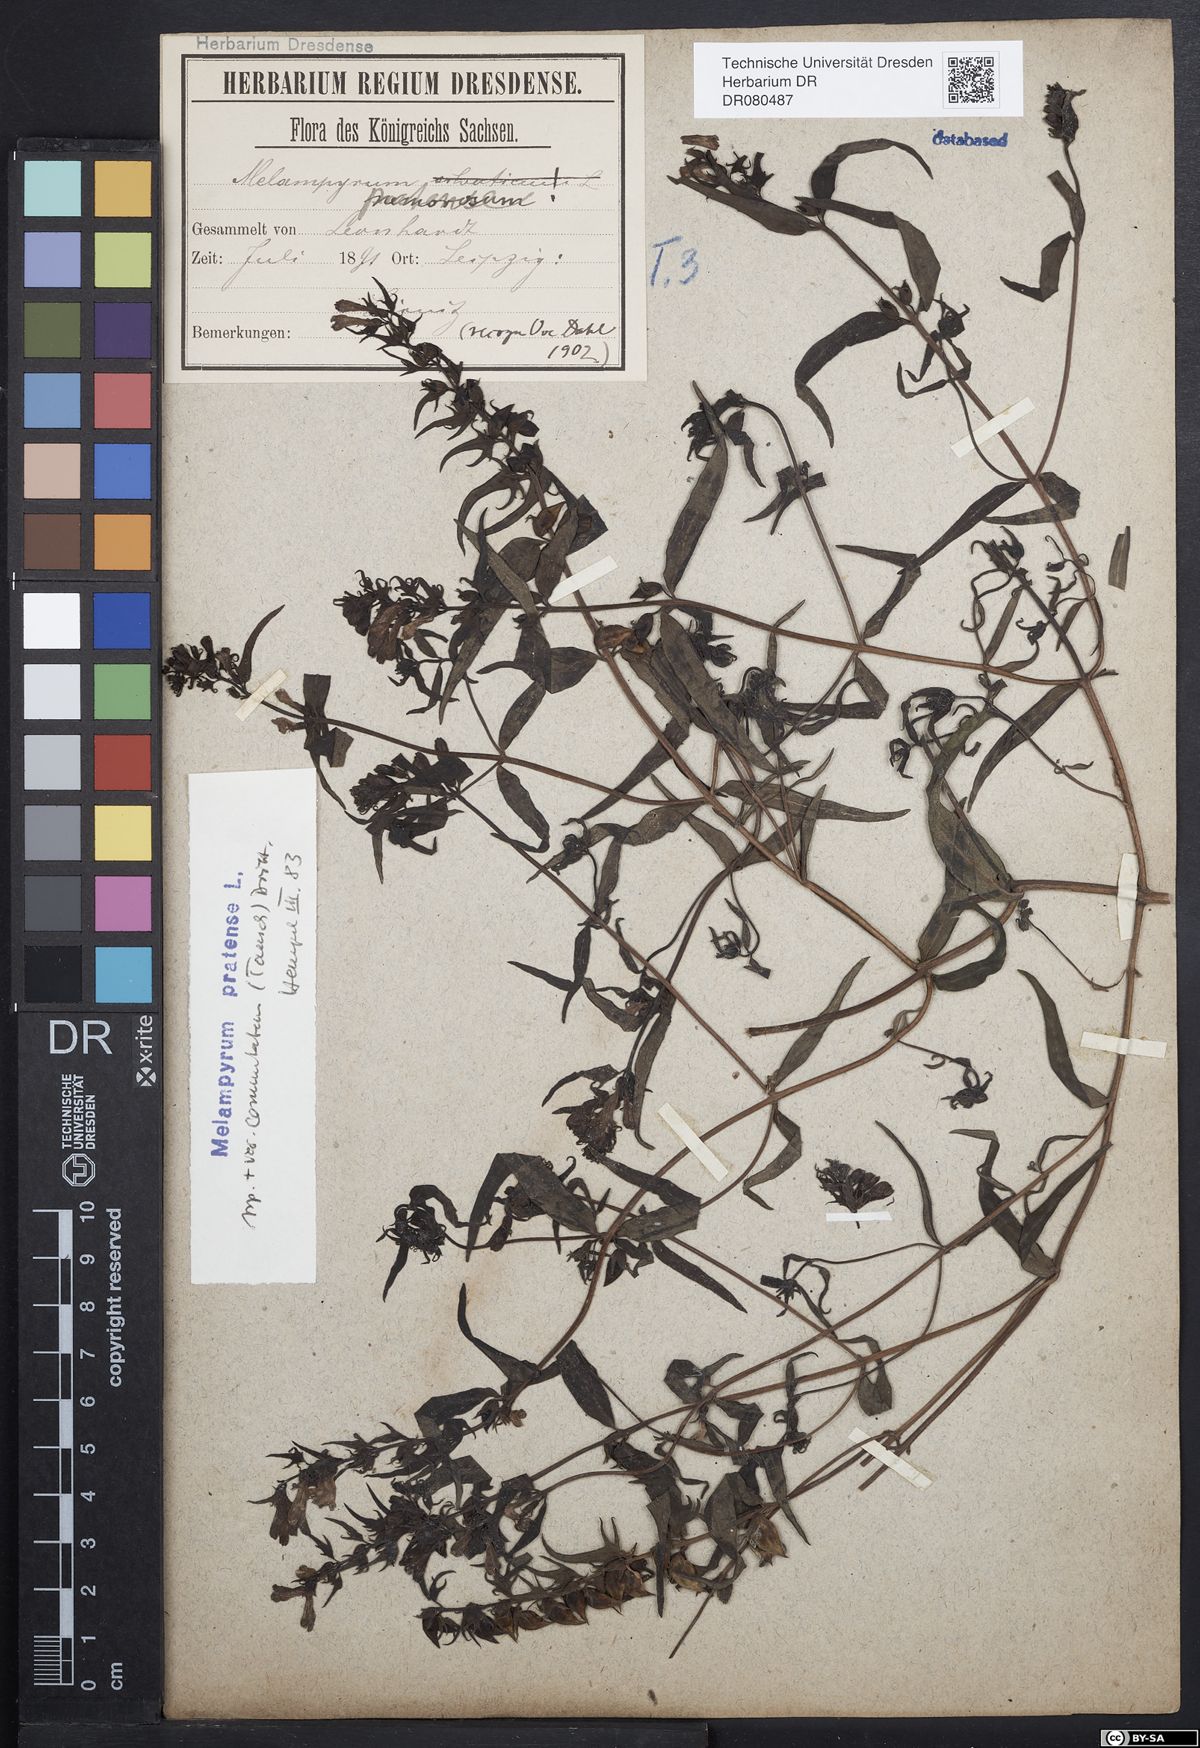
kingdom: Plantae
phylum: Tracheophyta
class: Magnoliopsida
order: Lamiales
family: Orobanchaceae
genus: Melampyrum
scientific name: Melampyrum pratense
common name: Common cow-wheat
